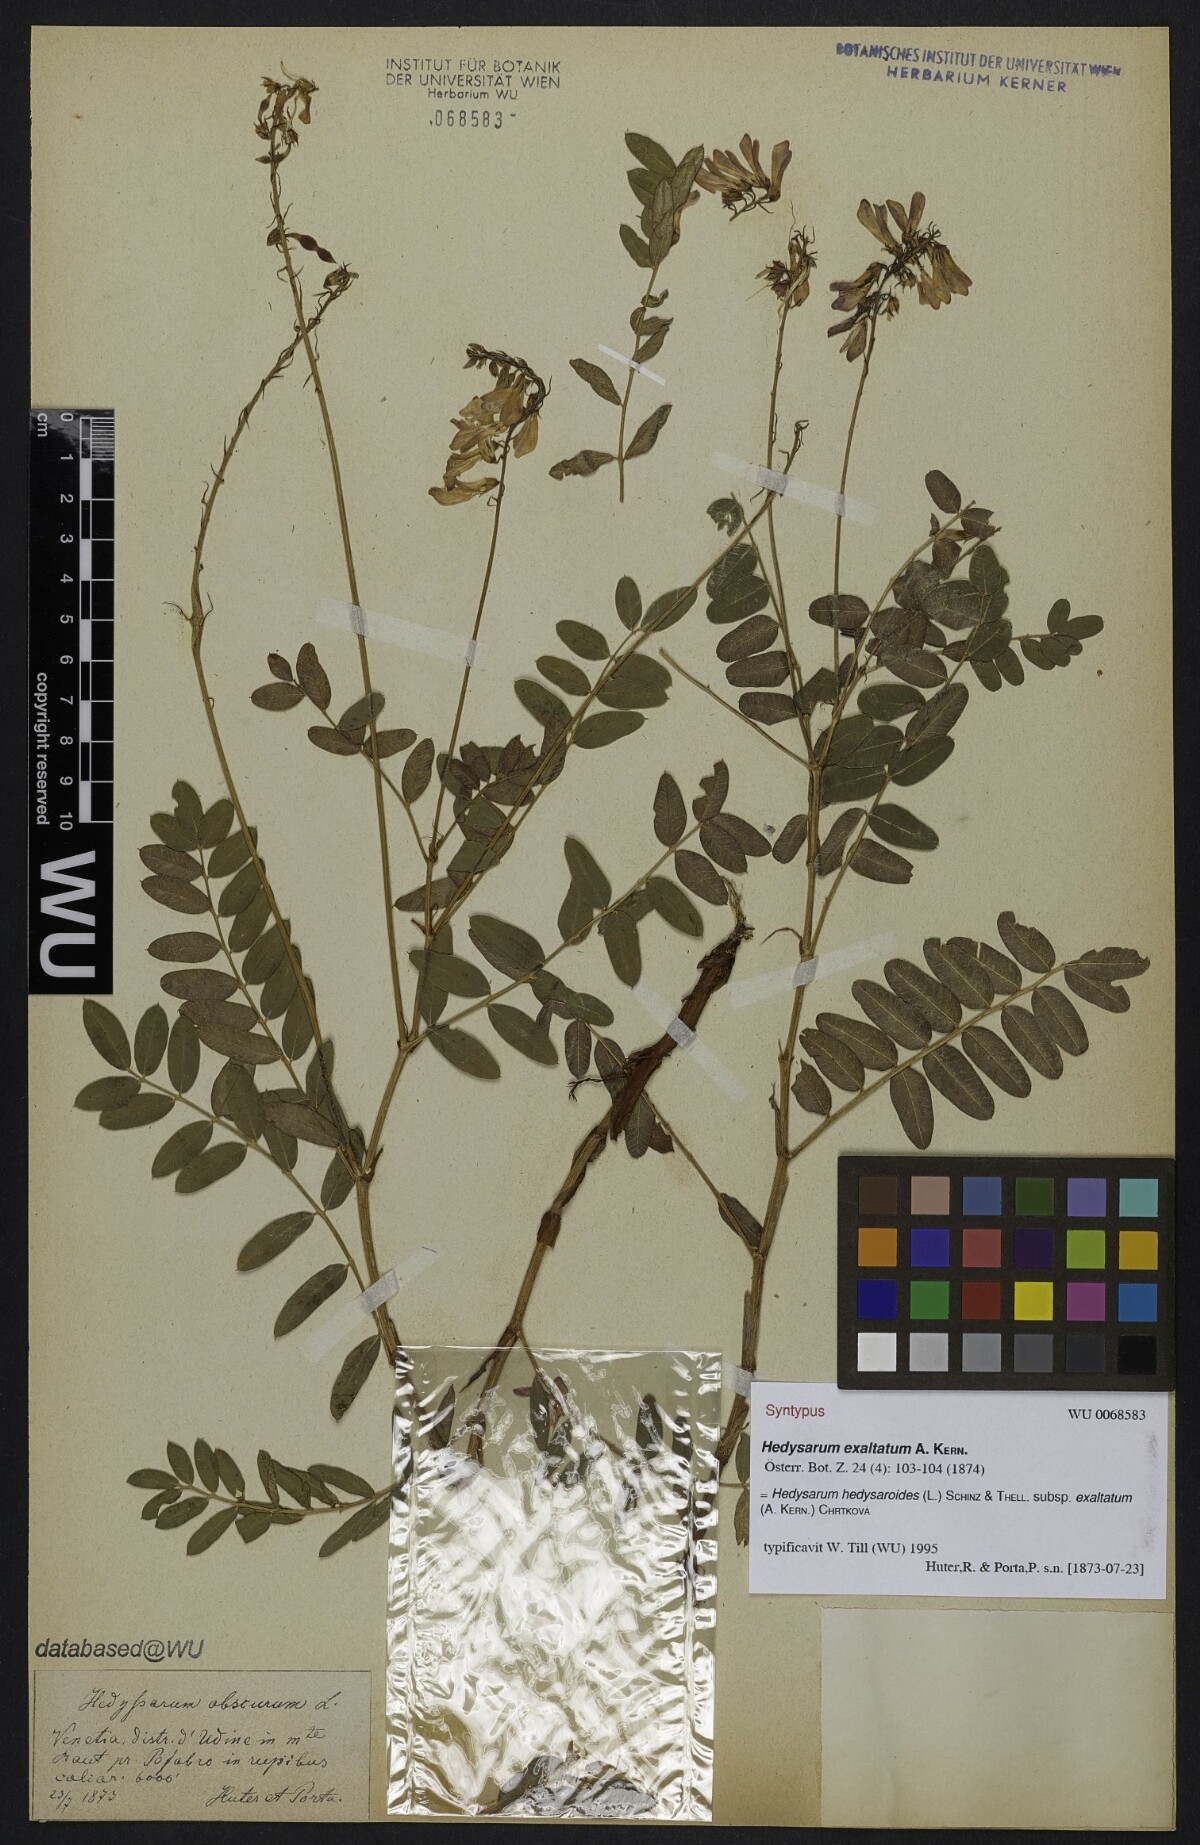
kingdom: Plantae
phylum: Tracheophyta
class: Magnoliopsida
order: Fabales
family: Fabaceae
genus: Hedysarum
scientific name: Hedysarum hedysaroides
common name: Alpine french-honeysuckle
